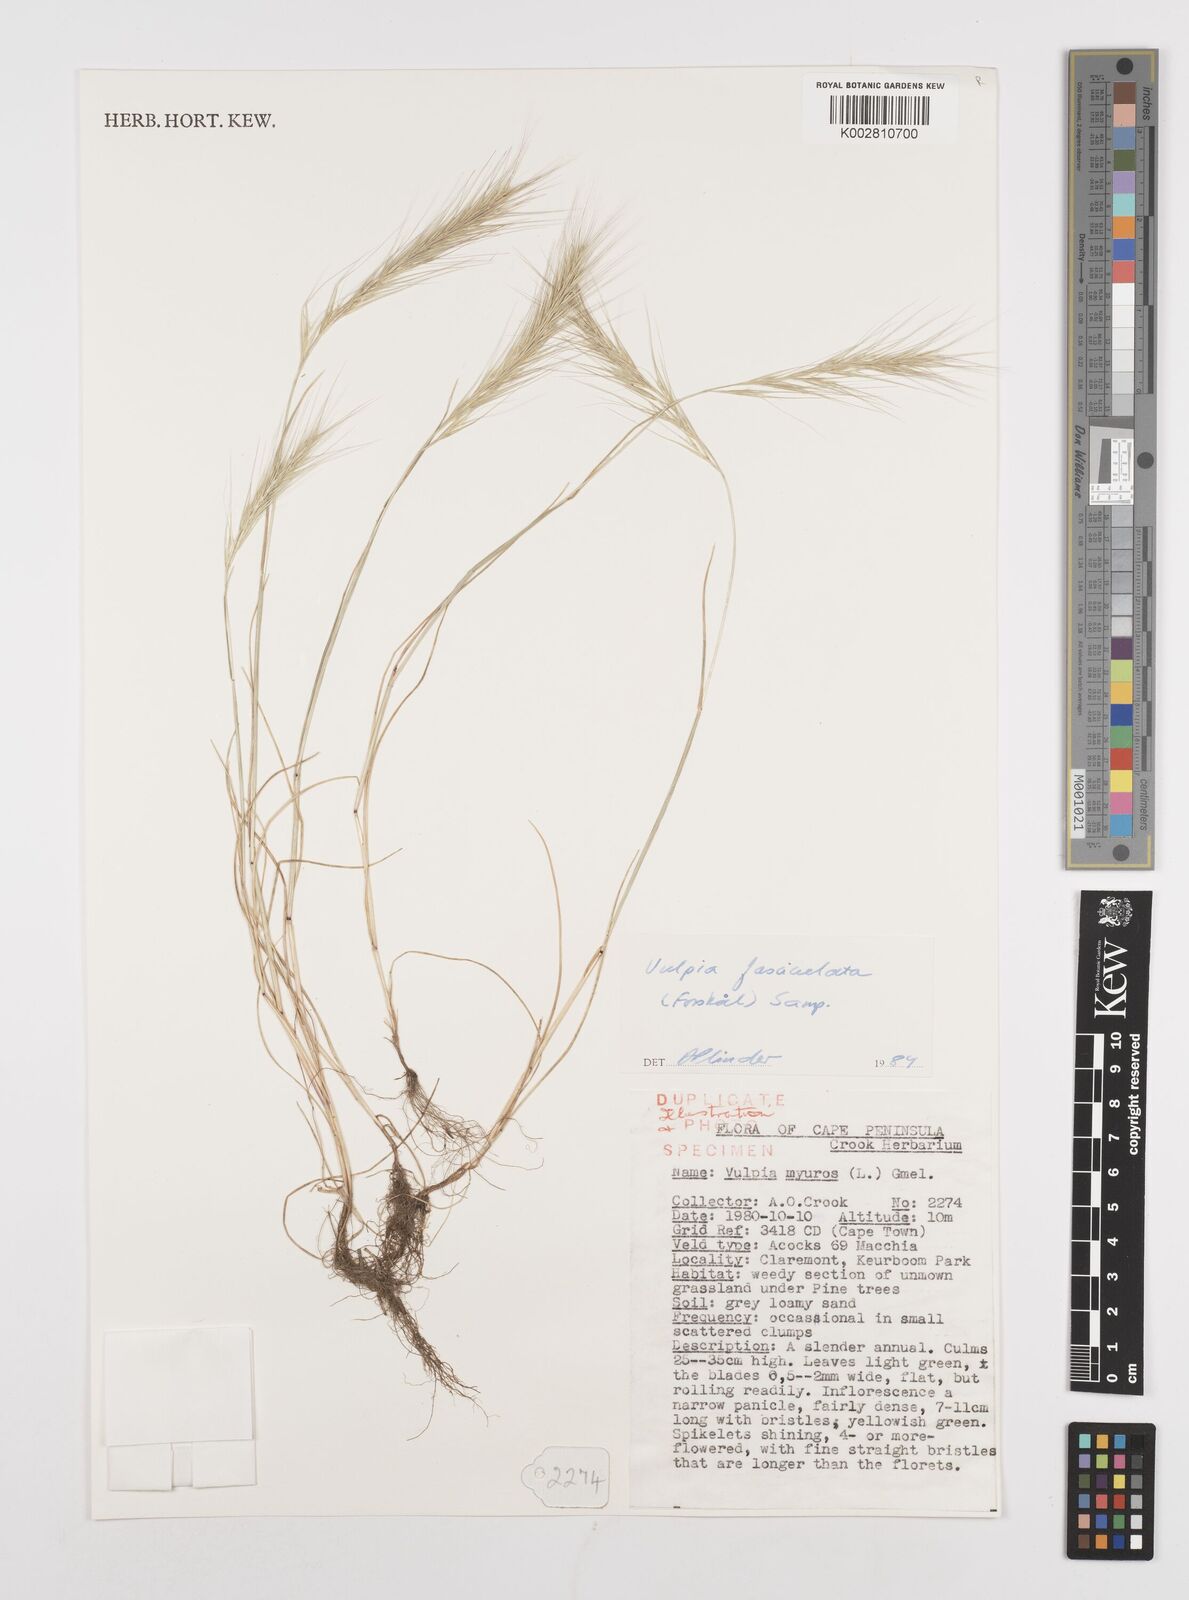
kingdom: Plantae
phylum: Tracheophyta
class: Liliopsida
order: Poales
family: Poaceae
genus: Festuca
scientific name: Festuca fasciculata
